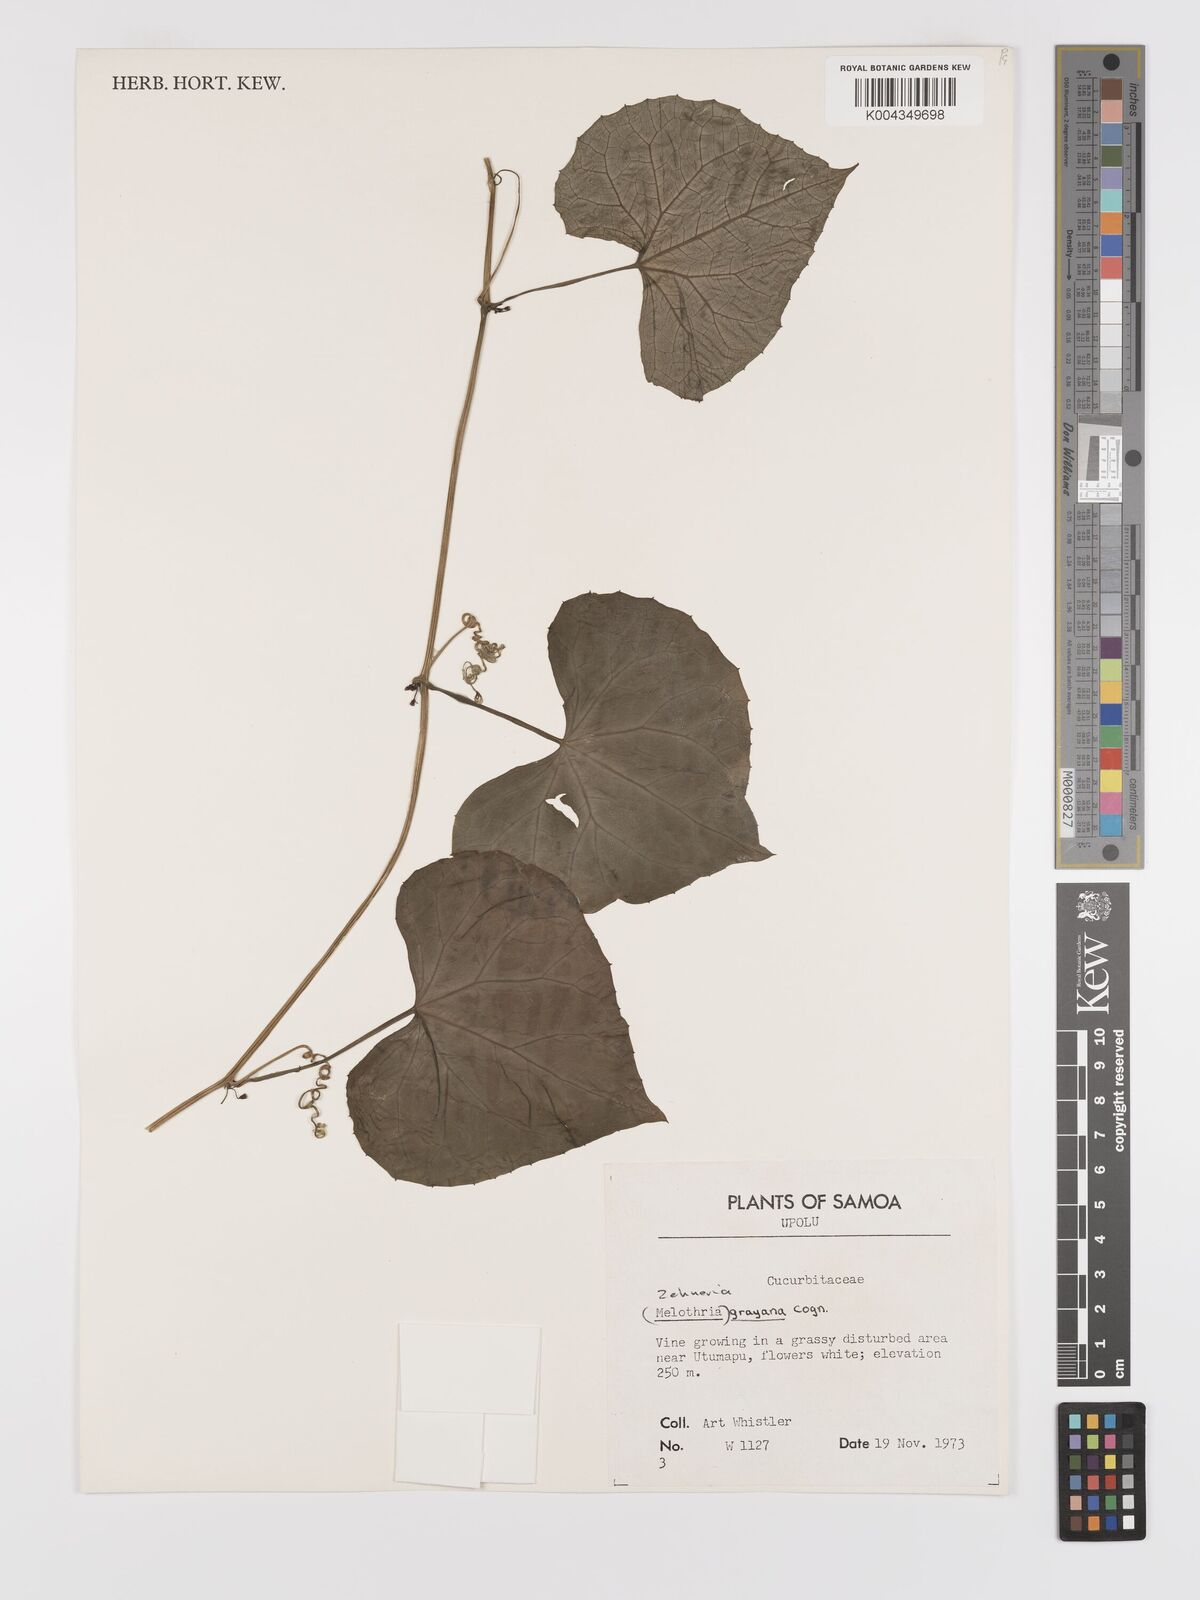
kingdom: Plantae
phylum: Tracheophyta
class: Magnoliopsida
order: Cucurbitales
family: Cucurbitaceae
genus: Zehneria
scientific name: Zehneria
